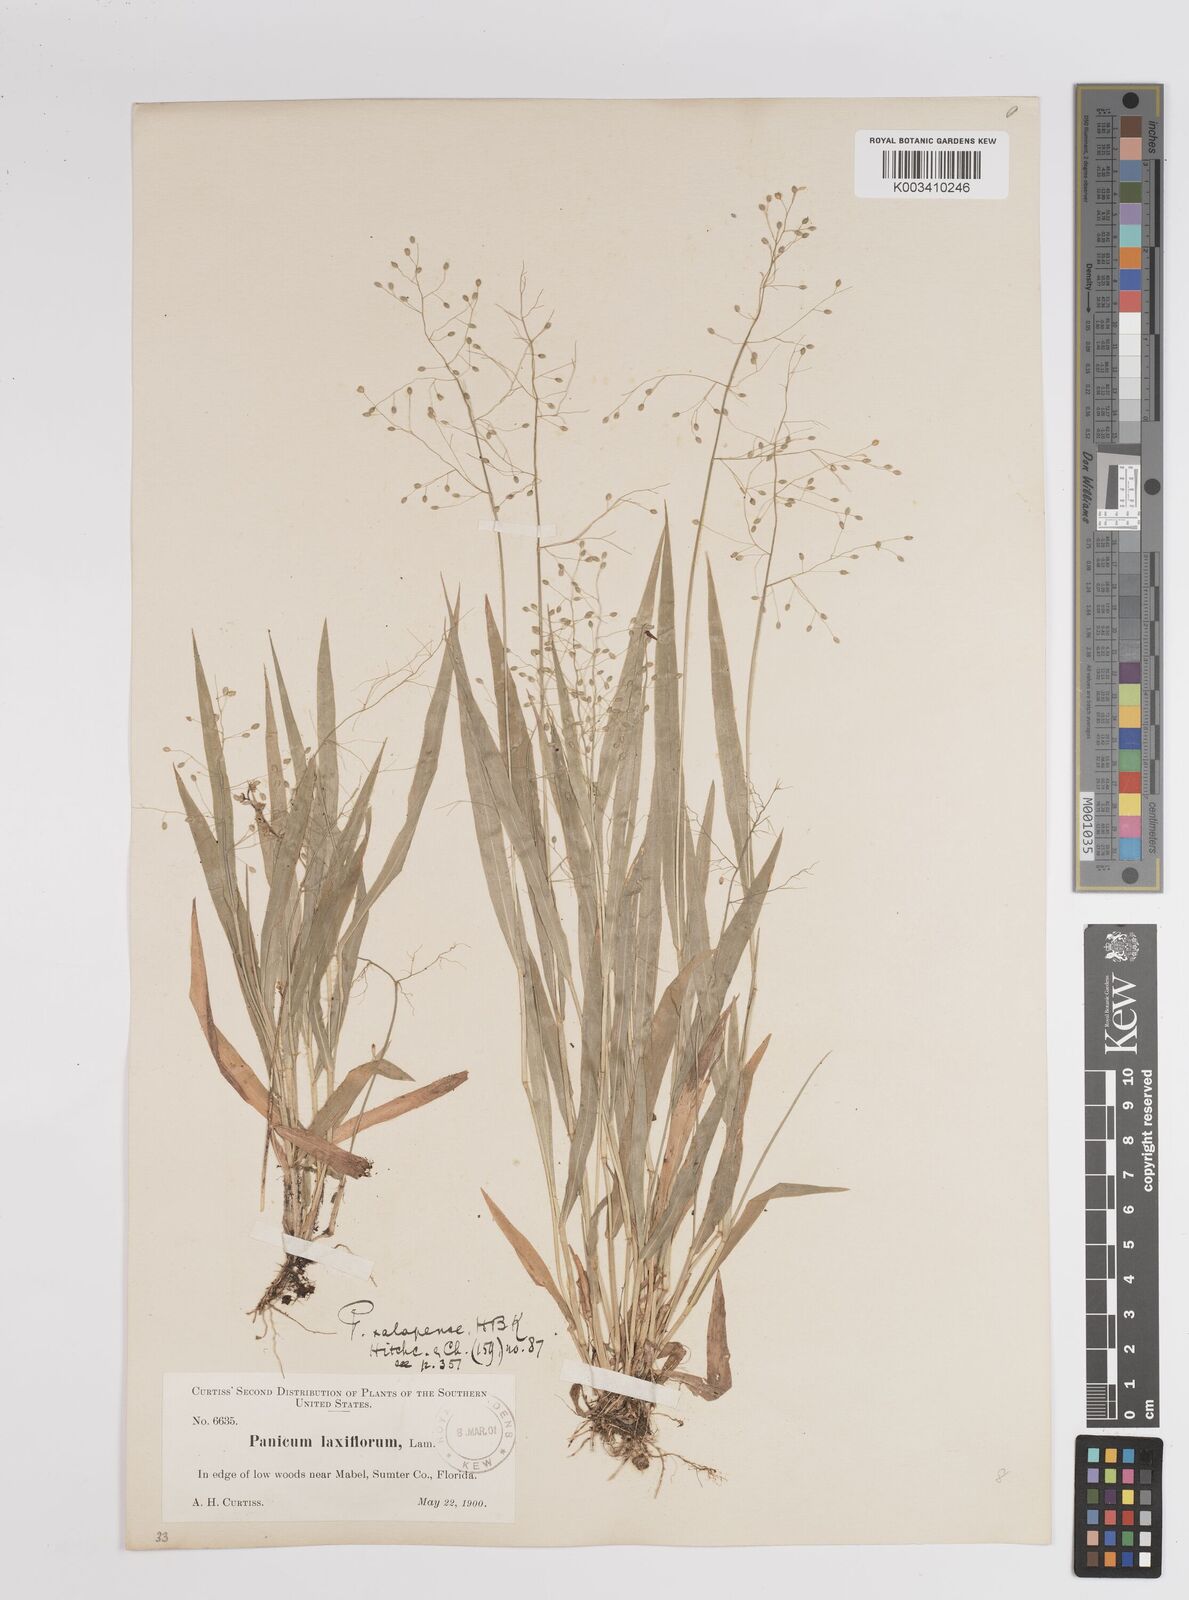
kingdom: Plantae
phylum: Tracheophyta
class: Liliopsida
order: Poales
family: Poaceae
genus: Dichanthelium
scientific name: Dichanthelium laxiflorum
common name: Soft-tuft panic grass
